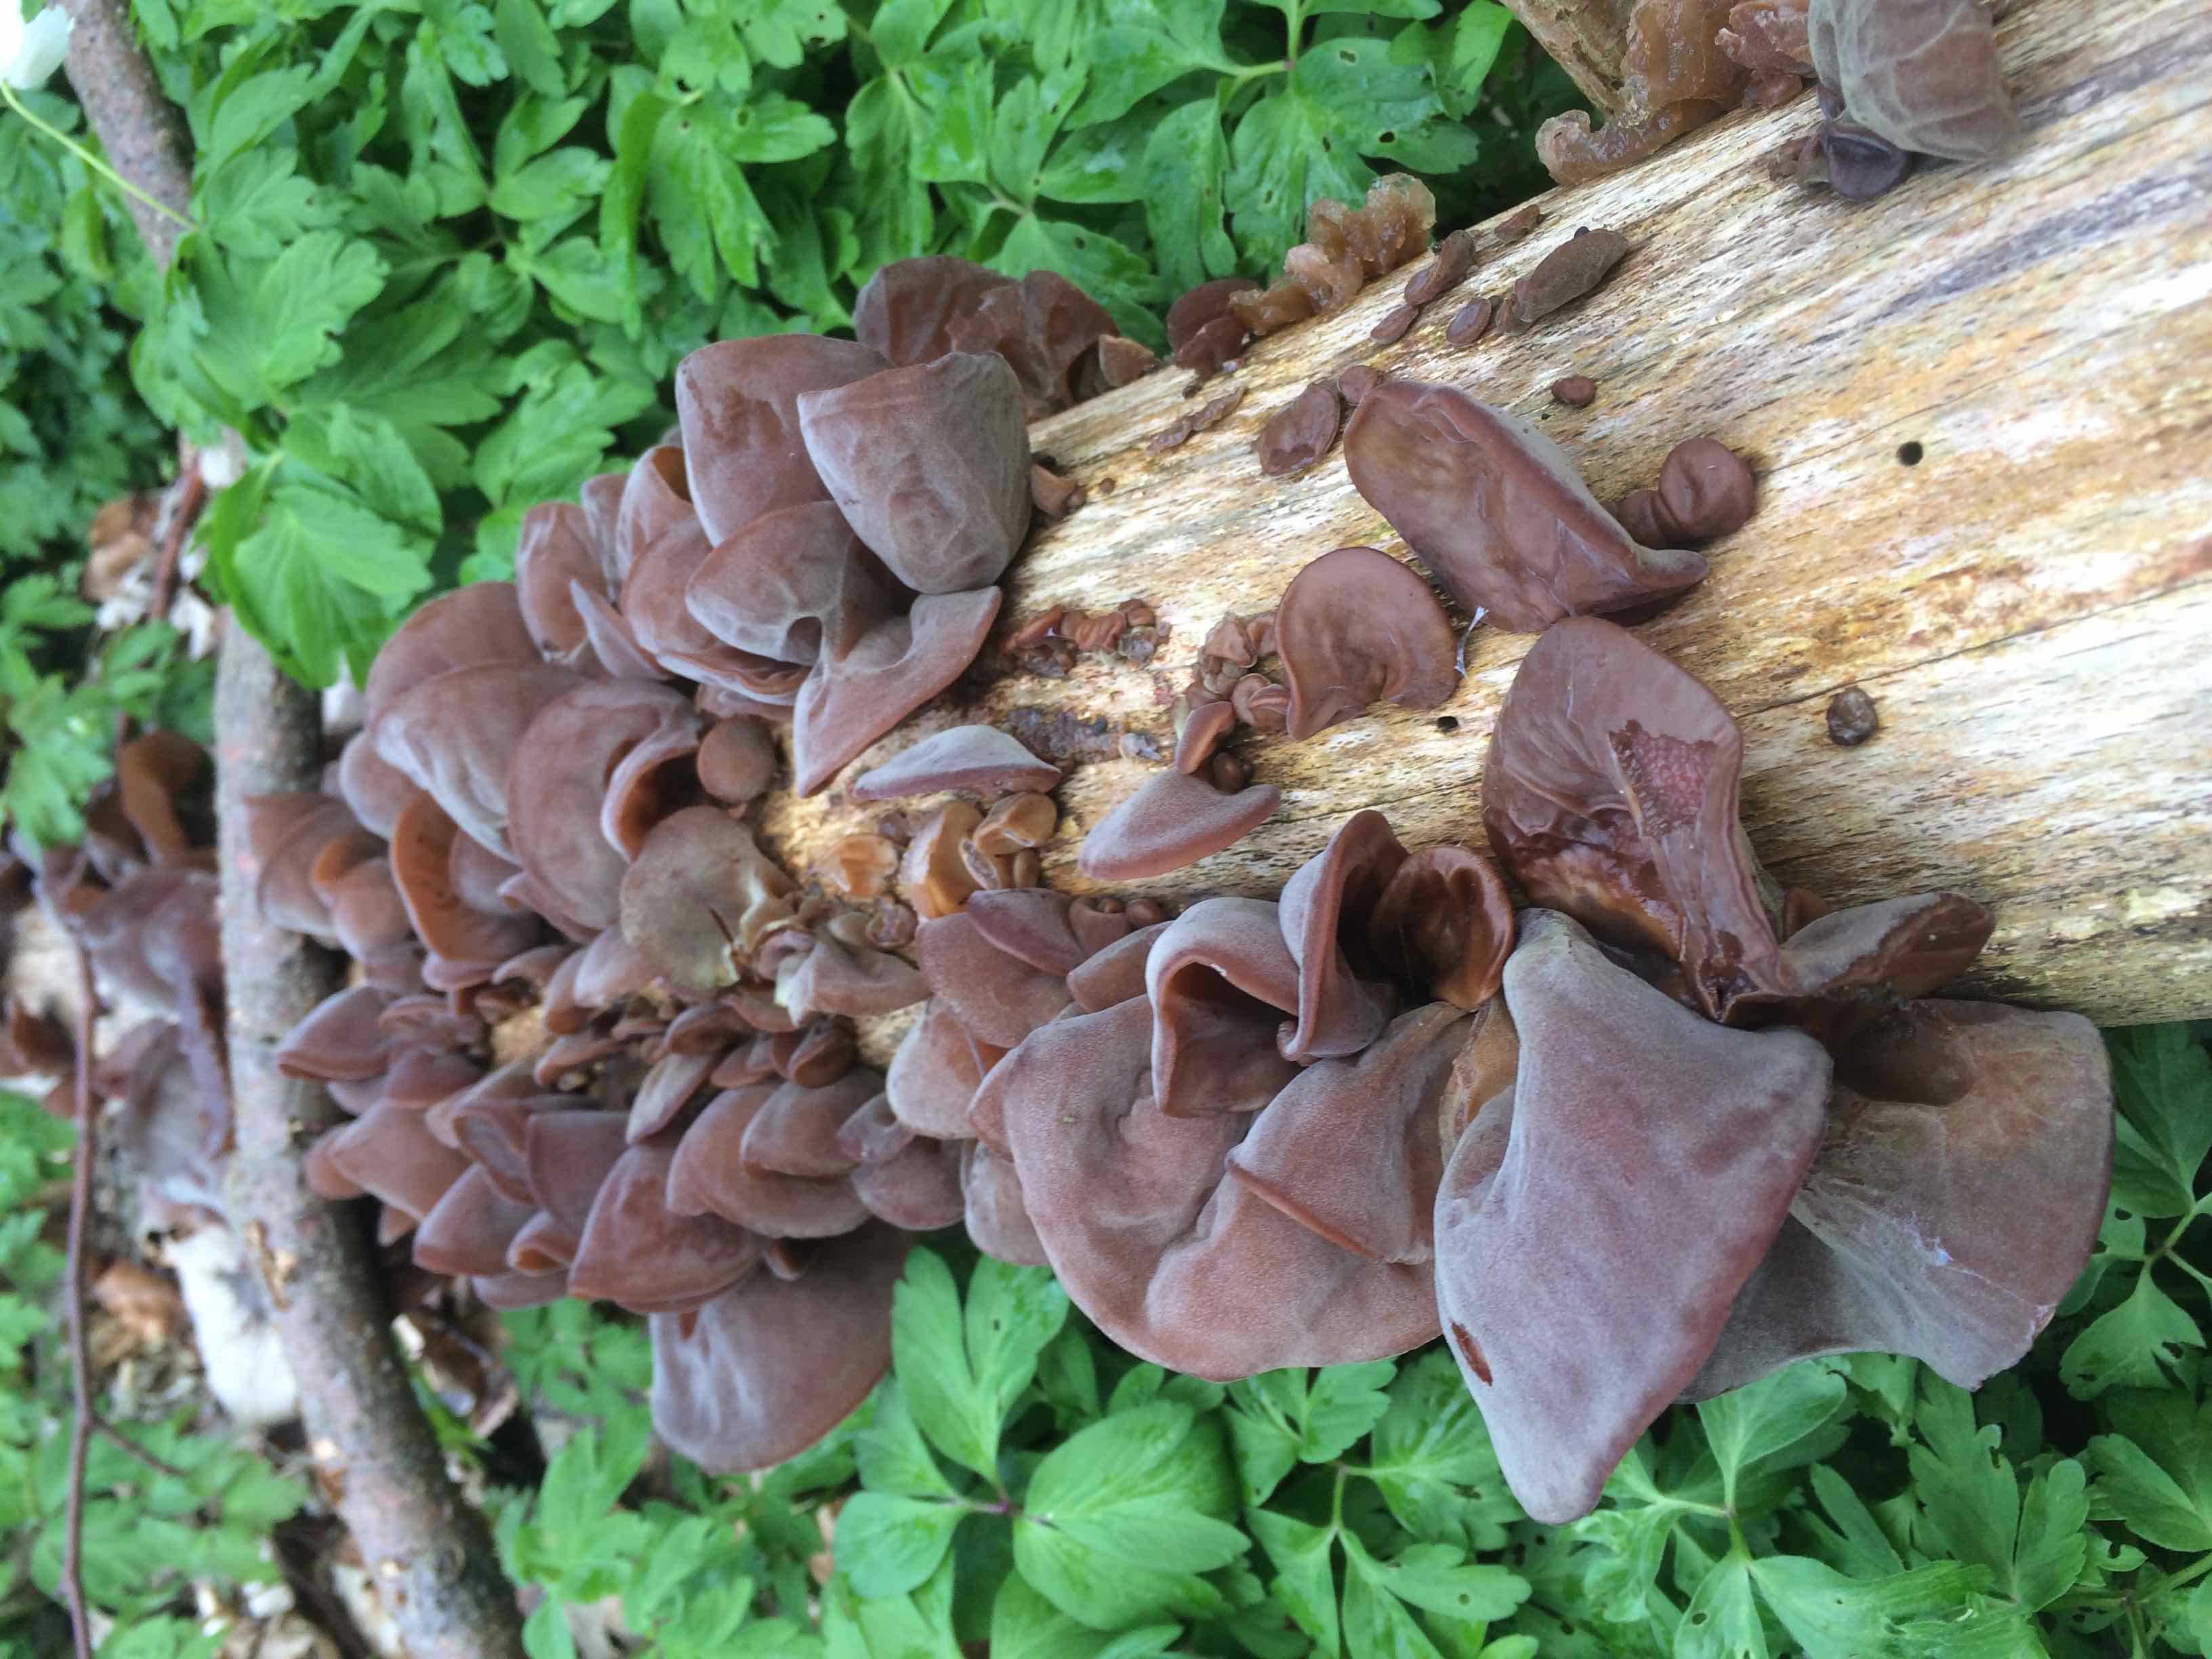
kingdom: Fungi
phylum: Basidiomycota
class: Agaricomycetes
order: Auriculariales
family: Auriculariaceae
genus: Auricularia
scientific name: Auricularia auricula-judae
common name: almindelig judasøre
